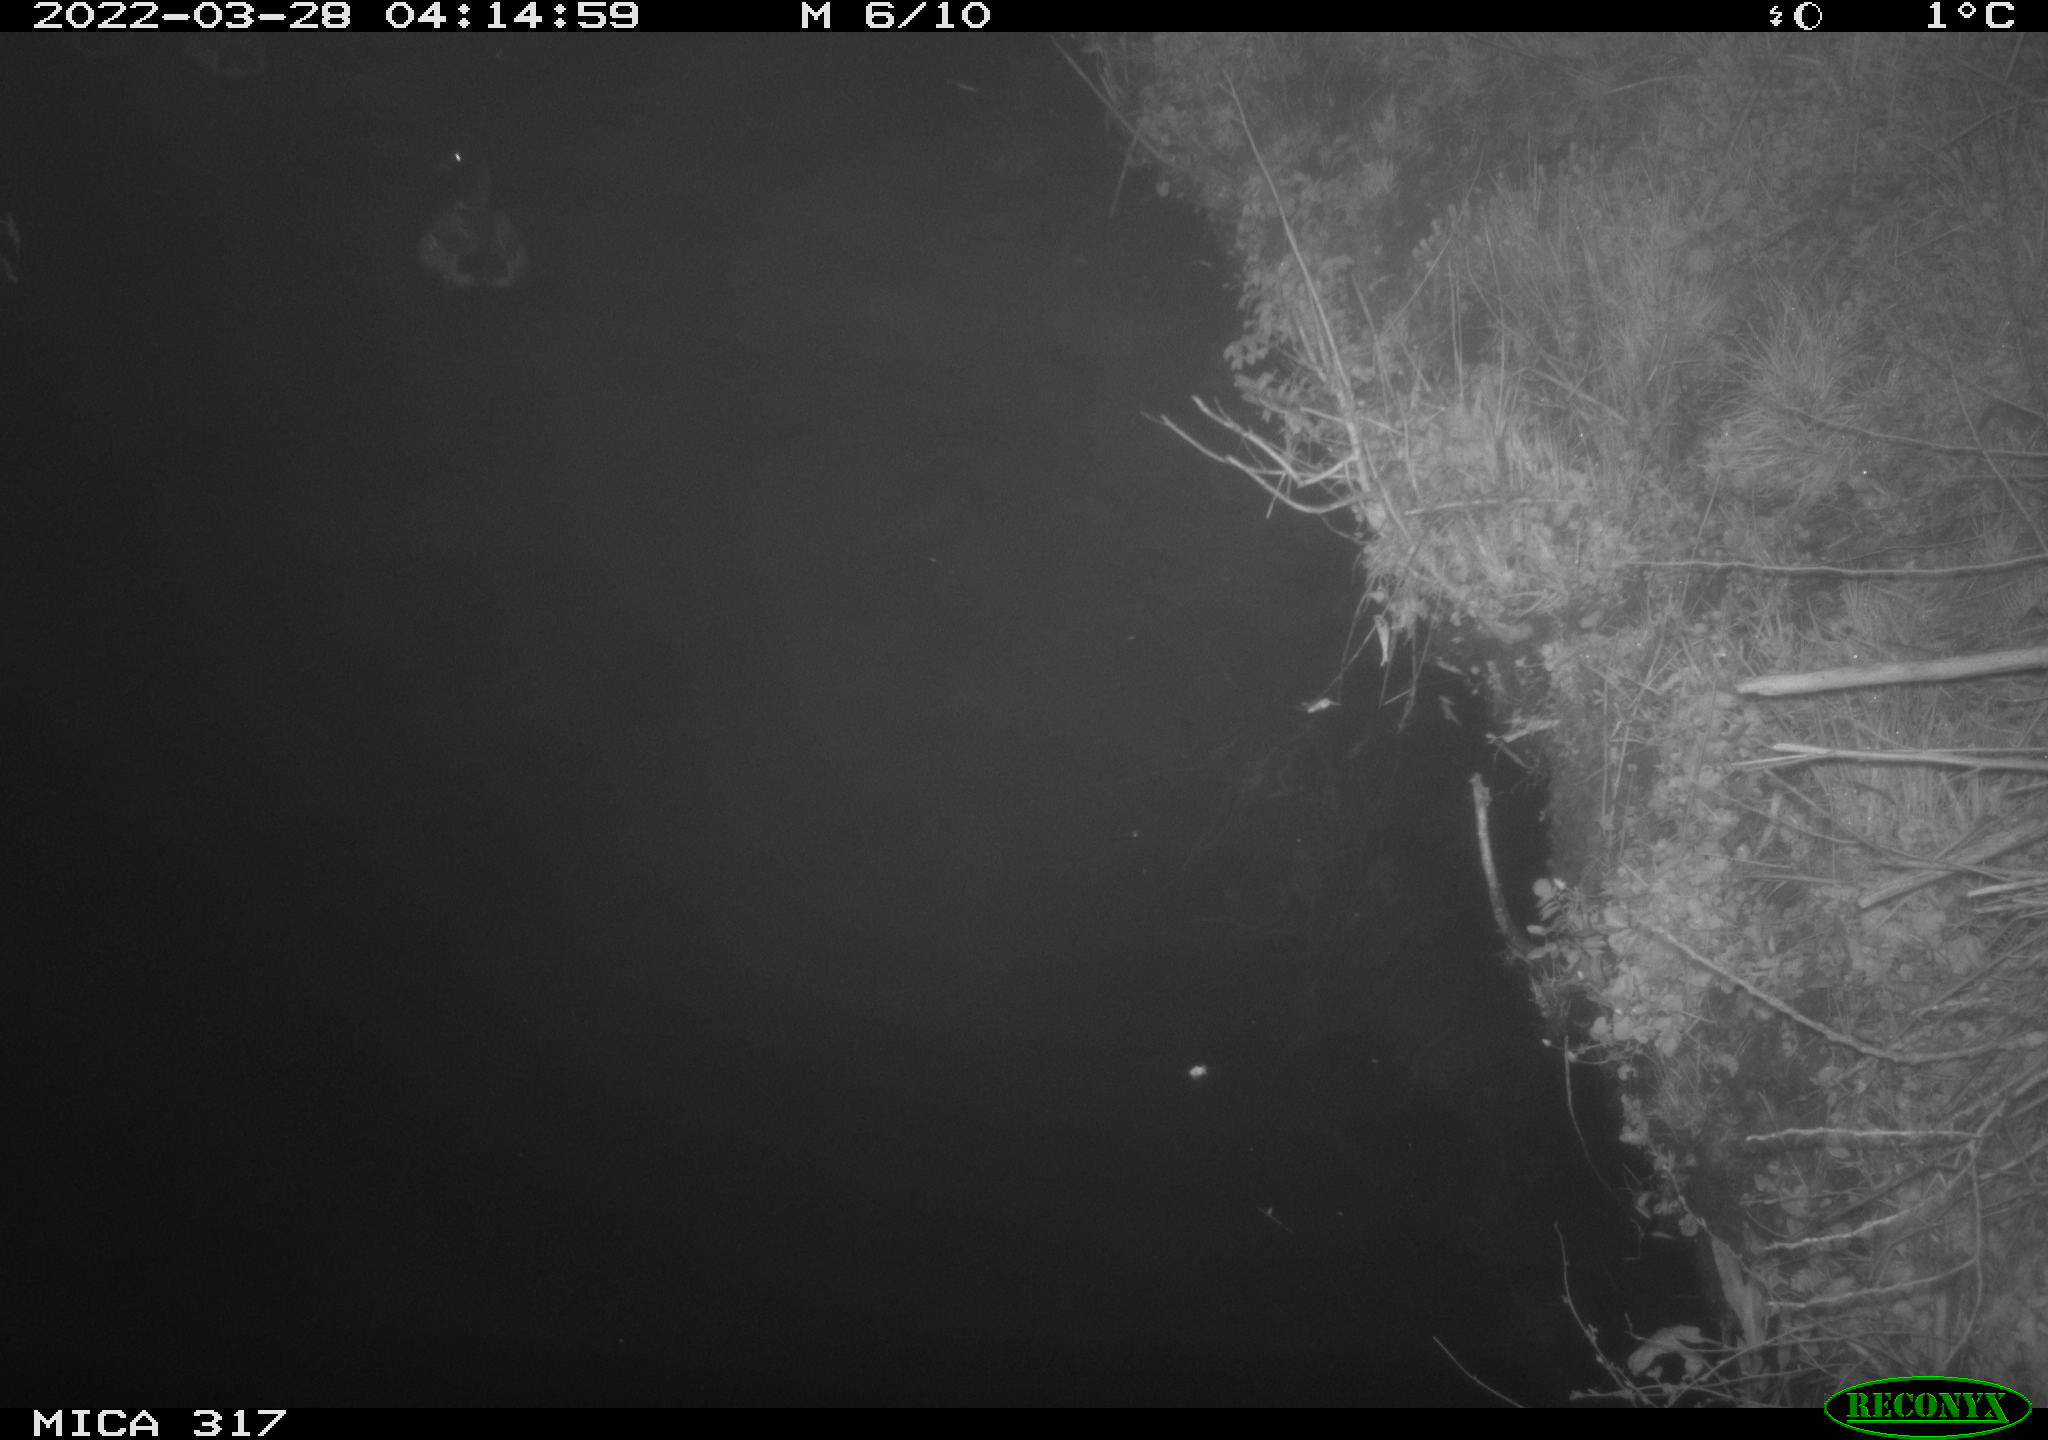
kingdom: Animalia
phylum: Chordata
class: Aves
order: Anseriformes
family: Anatidae
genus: Anas
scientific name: Anas platyrhynchos
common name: Mallard
